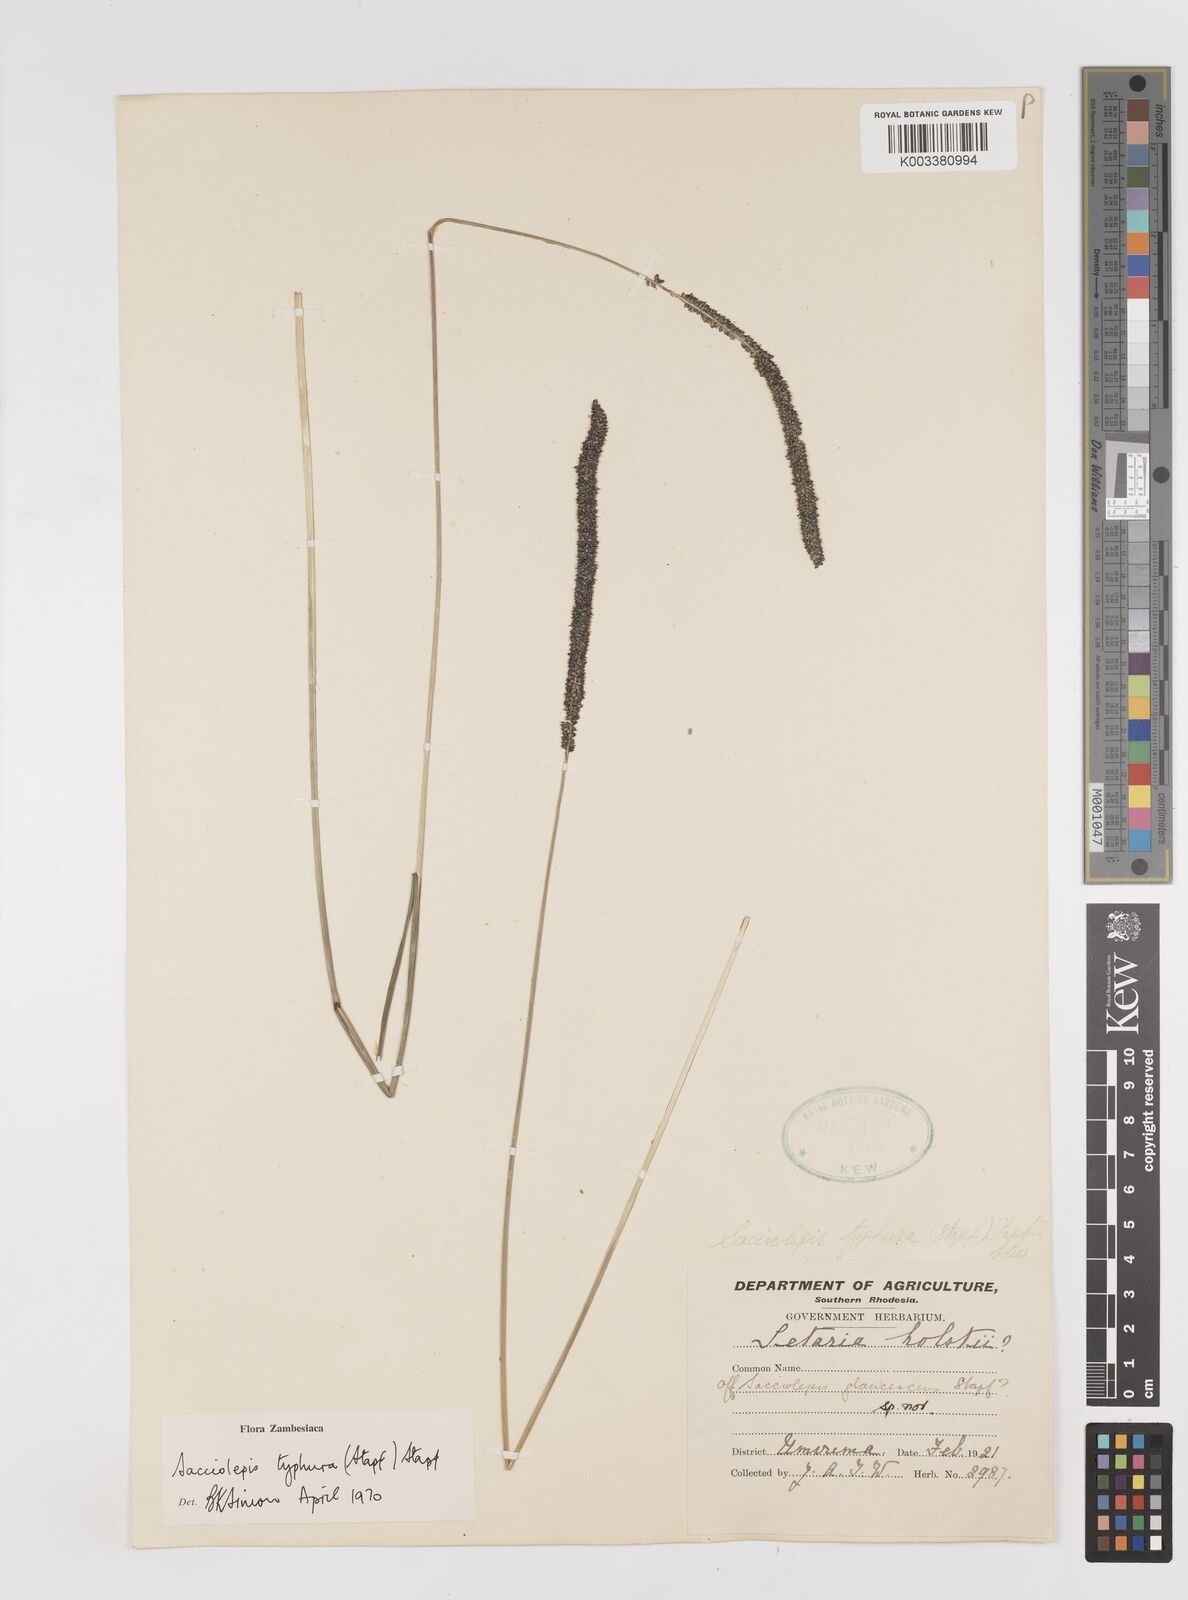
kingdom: Plantae
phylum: Tracheophyta
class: Liliopsida
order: Poales
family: Poaceae
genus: Sacciolepis
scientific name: Sacciolepis typhura
